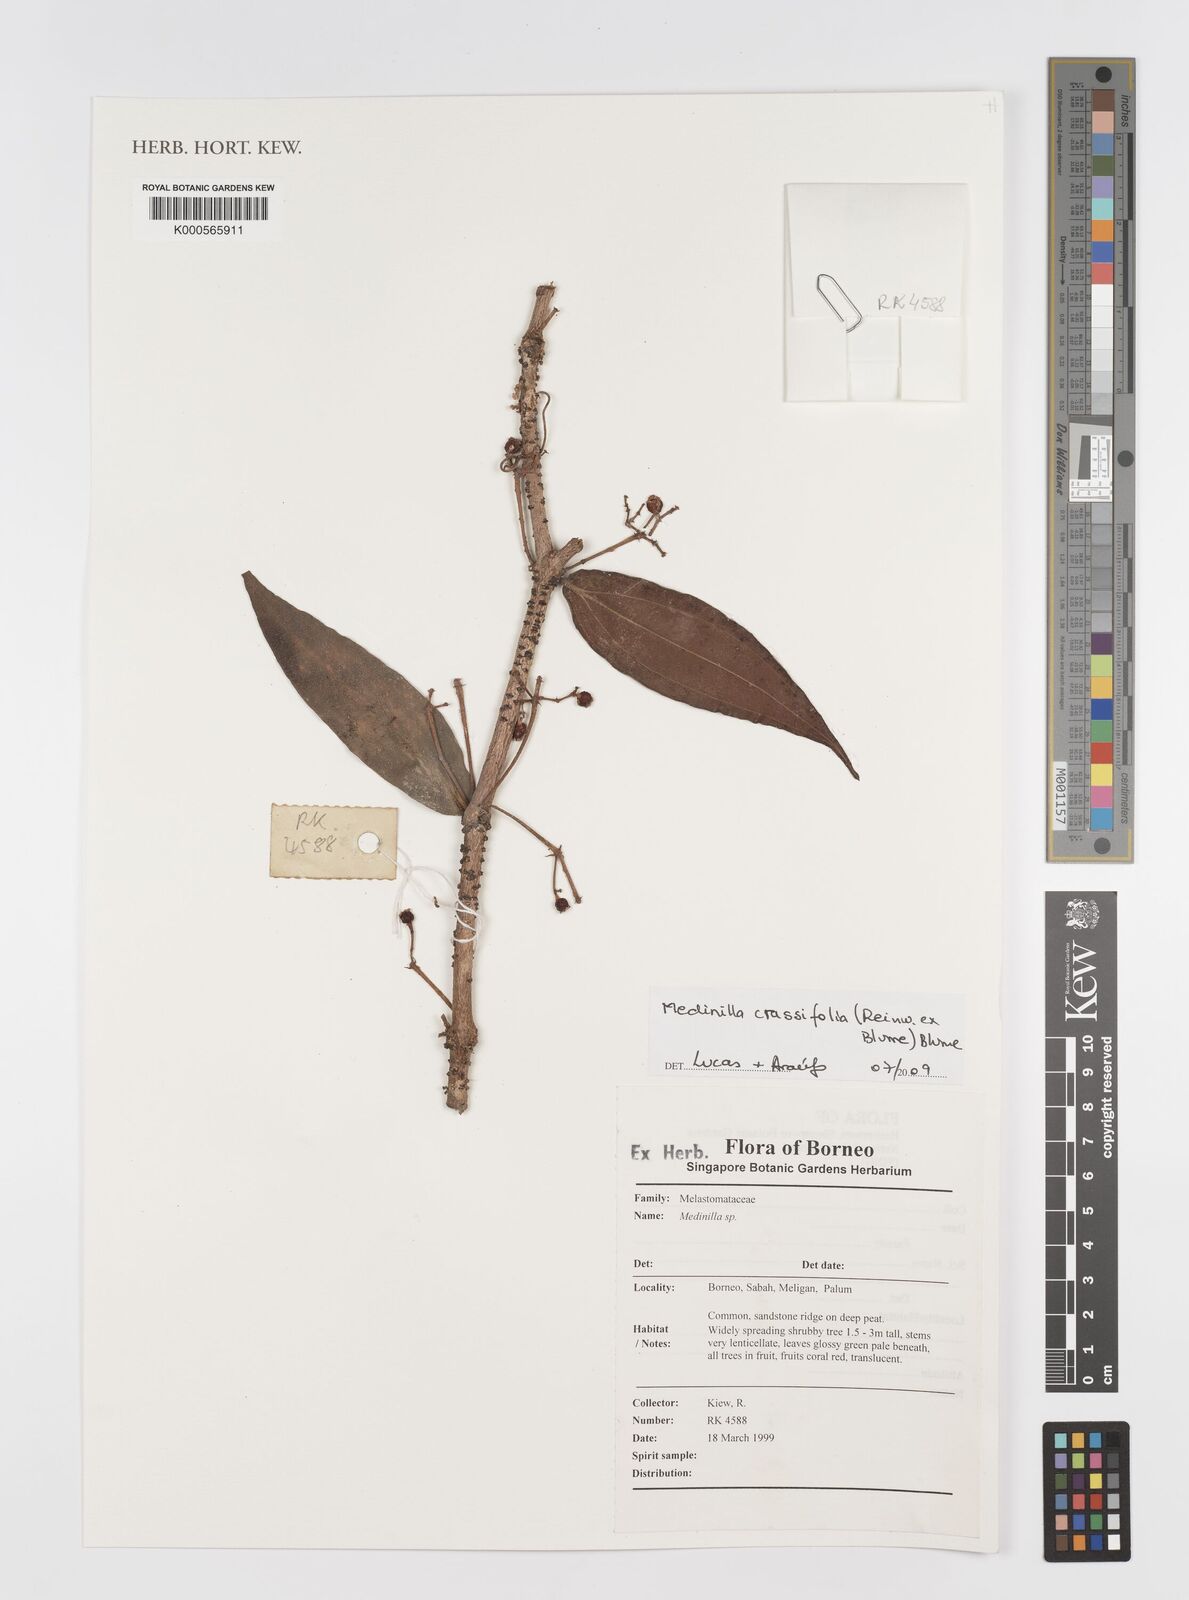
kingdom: Plantae
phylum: Tracheophyta
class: Magnoliopsida
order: Myrtales
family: Melastomataceae
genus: Medinilla
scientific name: Medinilla crassifolia
